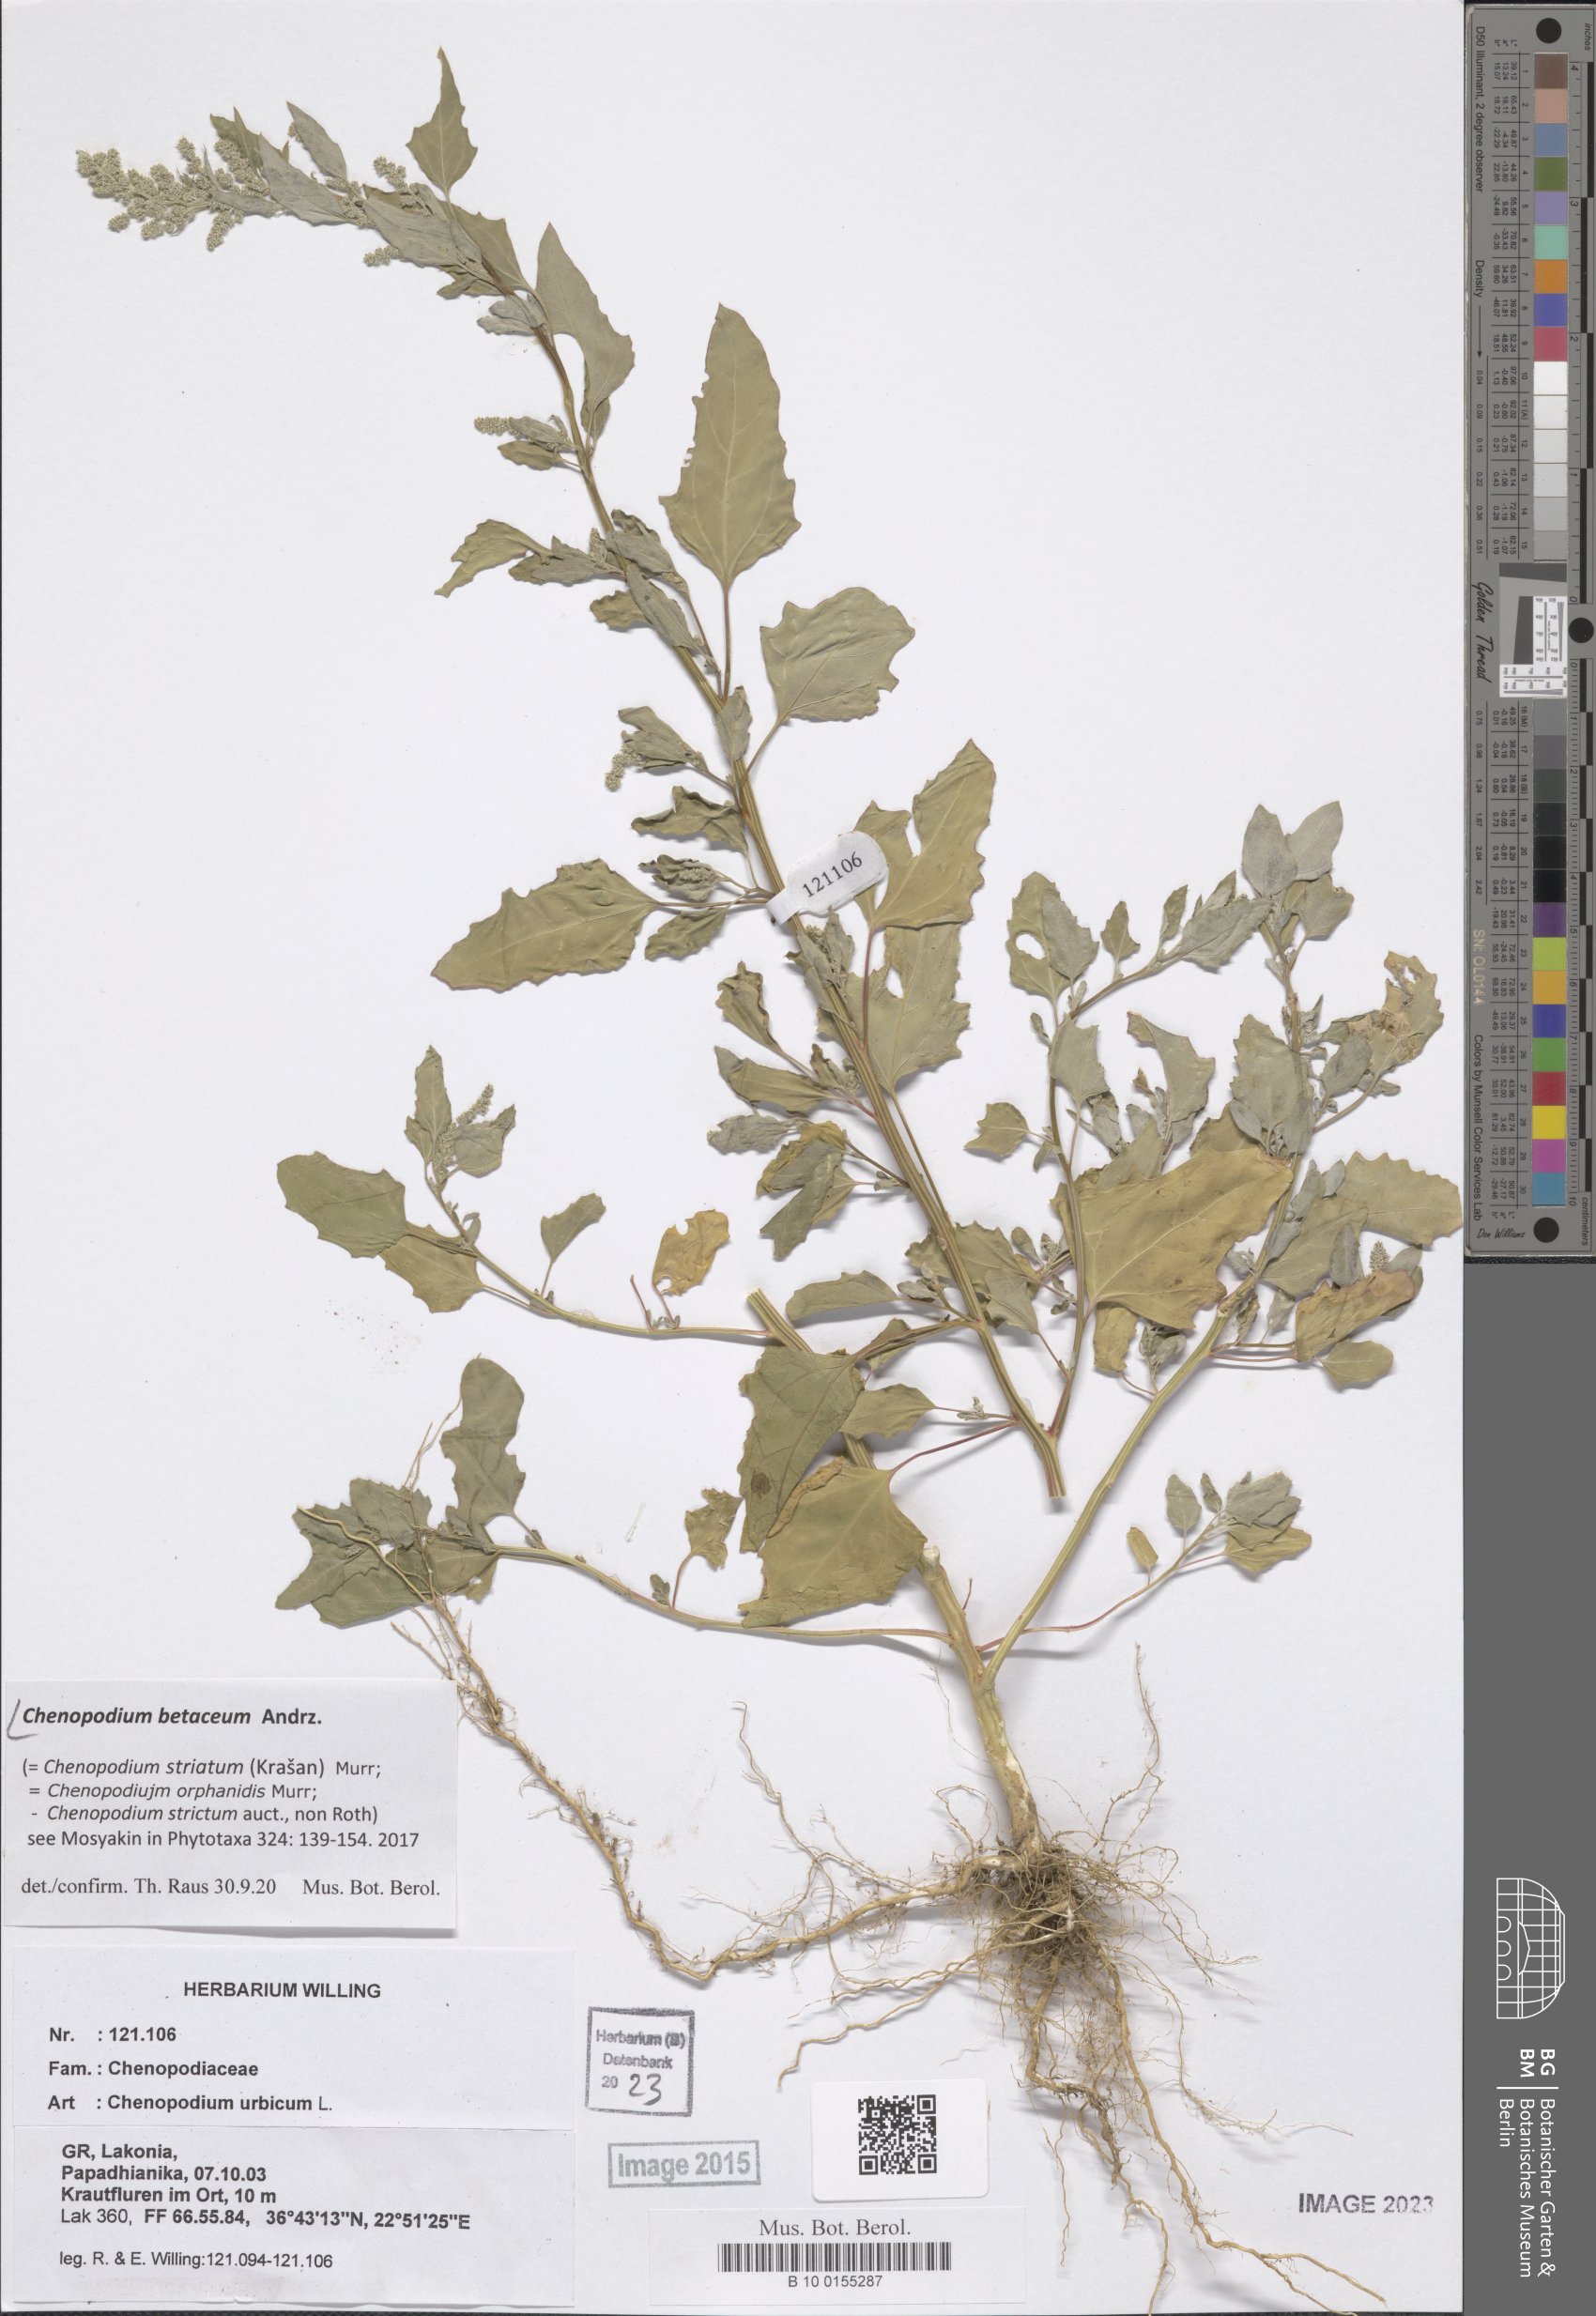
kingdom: Plantae
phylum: Tracheophyta
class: Magnoliopsida
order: Caryophyllales
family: Amaranthaceae
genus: Chenopodium
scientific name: Chenopodium betaceum
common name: Striped goosefoot
